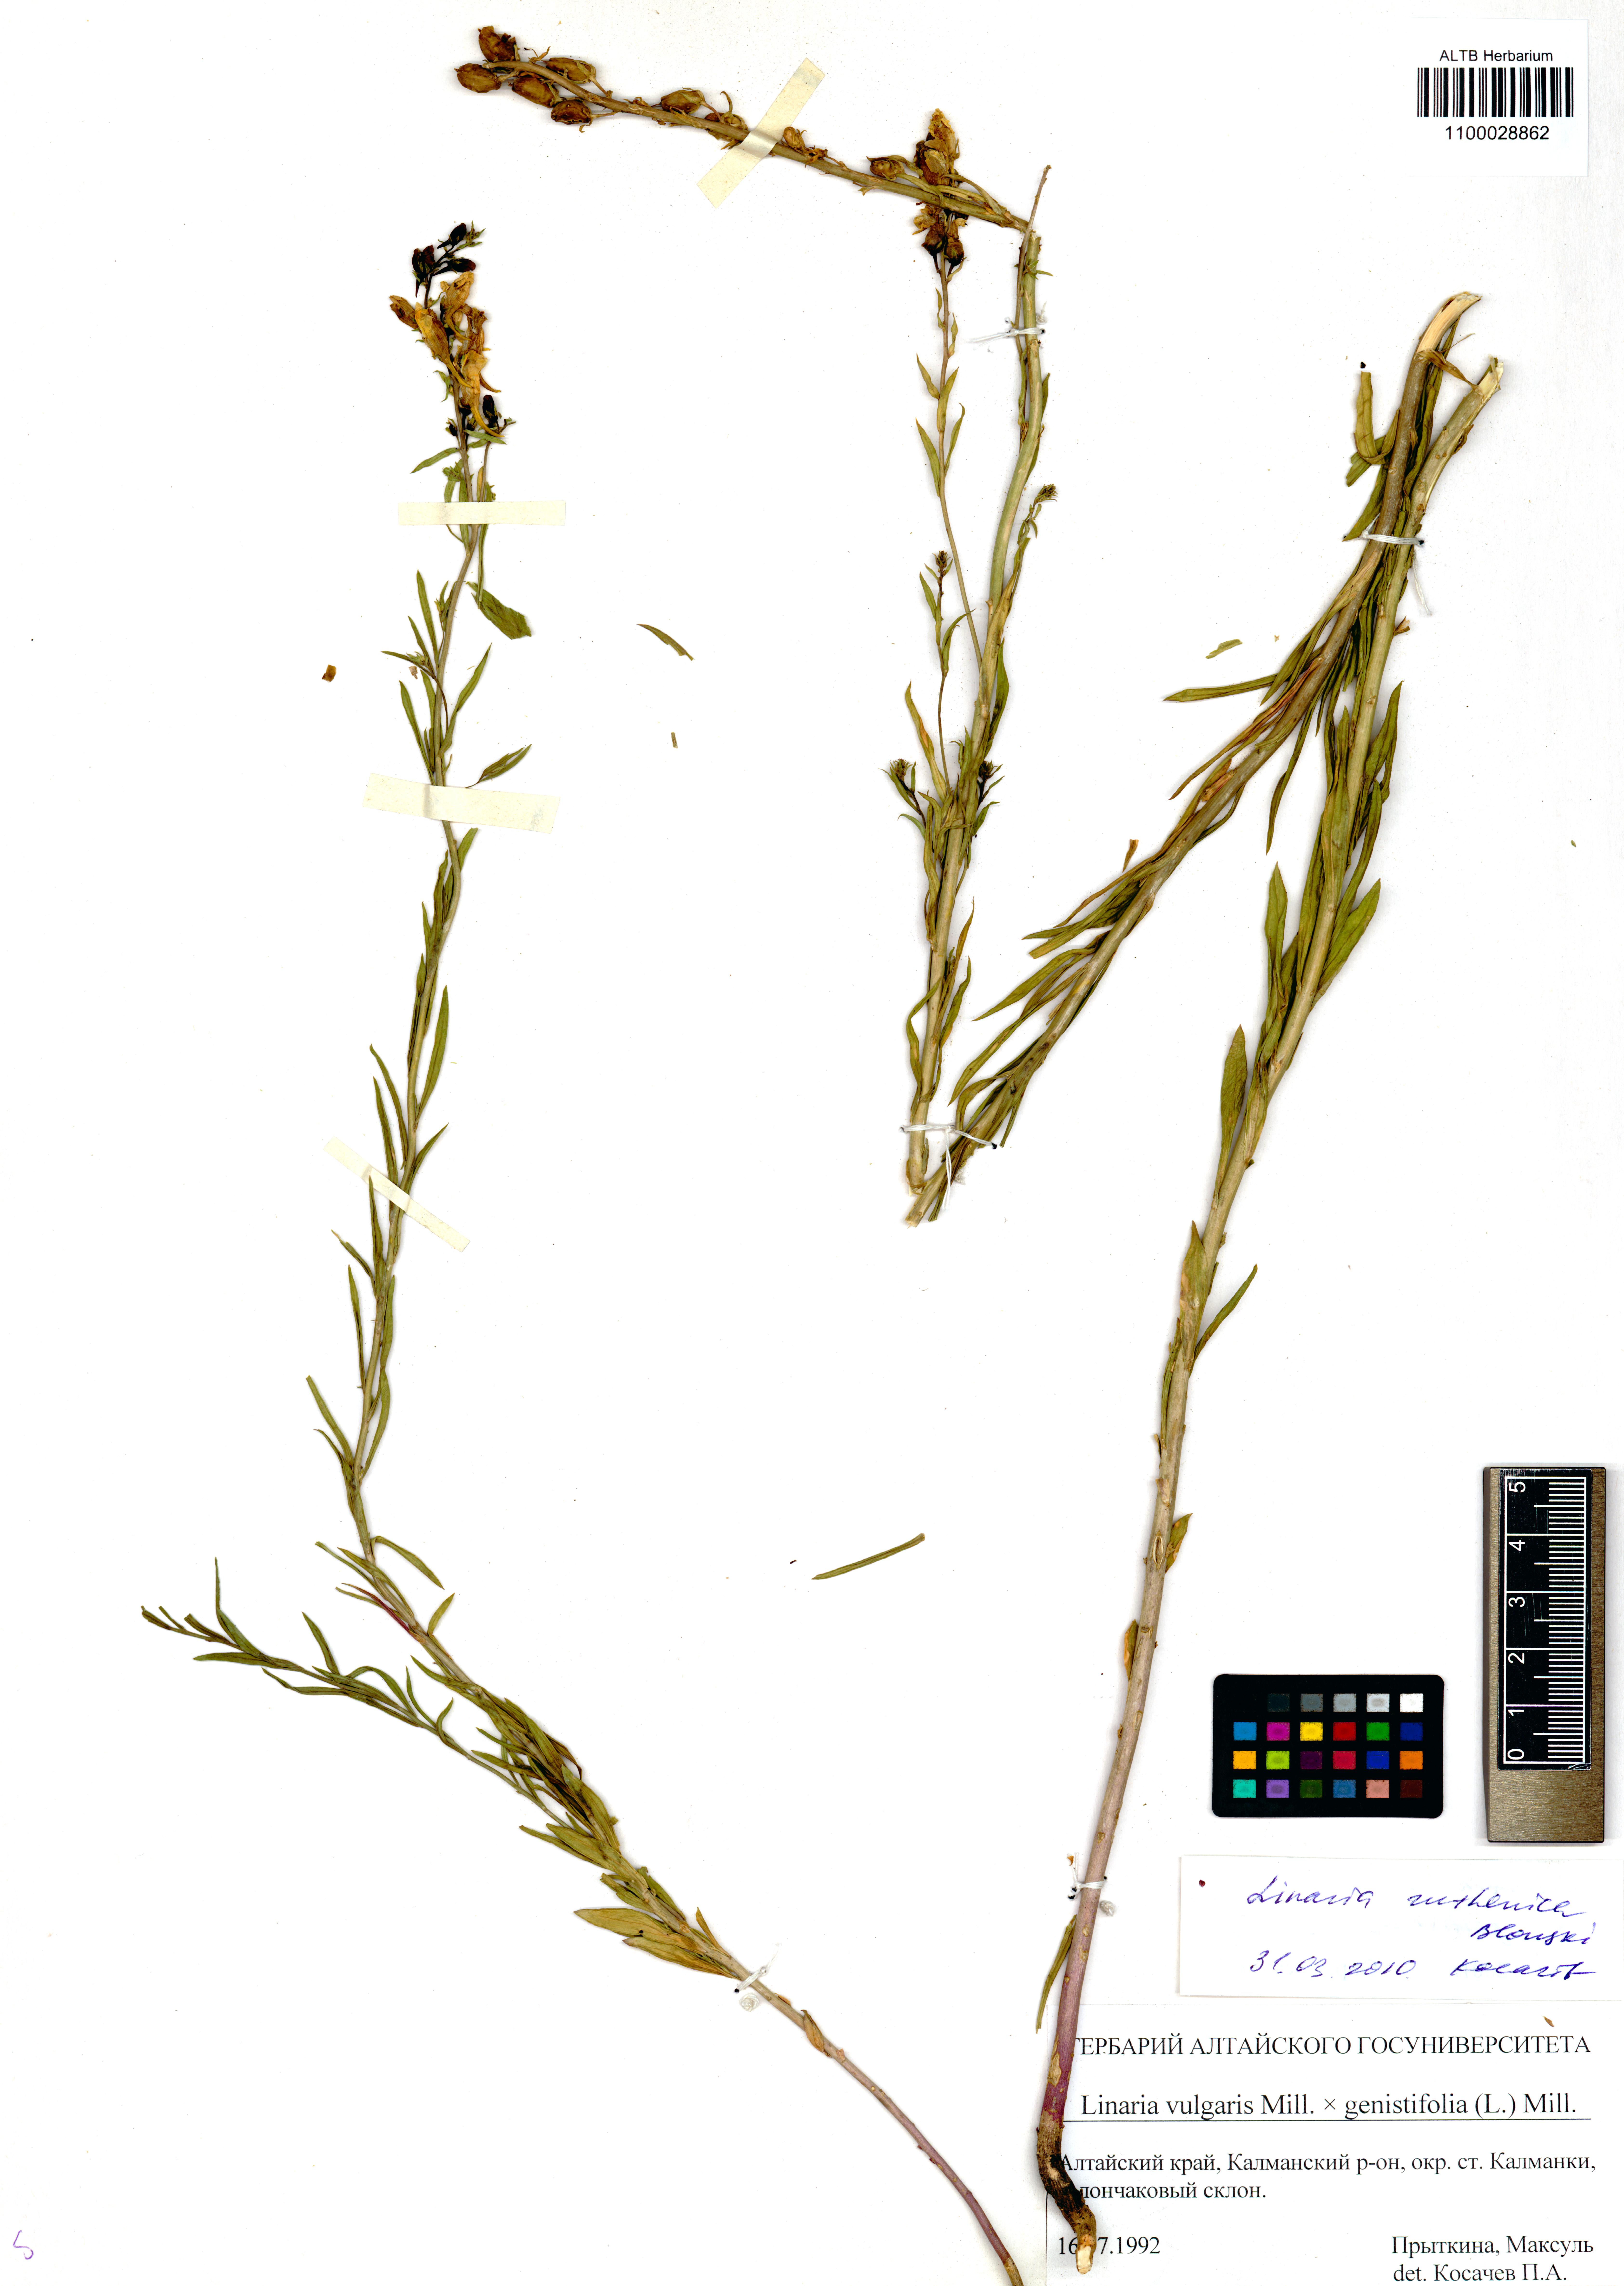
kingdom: Plantae
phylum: Tracheophyta
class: Magnoliopsida
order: Lamiales
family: Plantaginaceae
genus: Linaria
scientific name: Linaria biebersteinii
